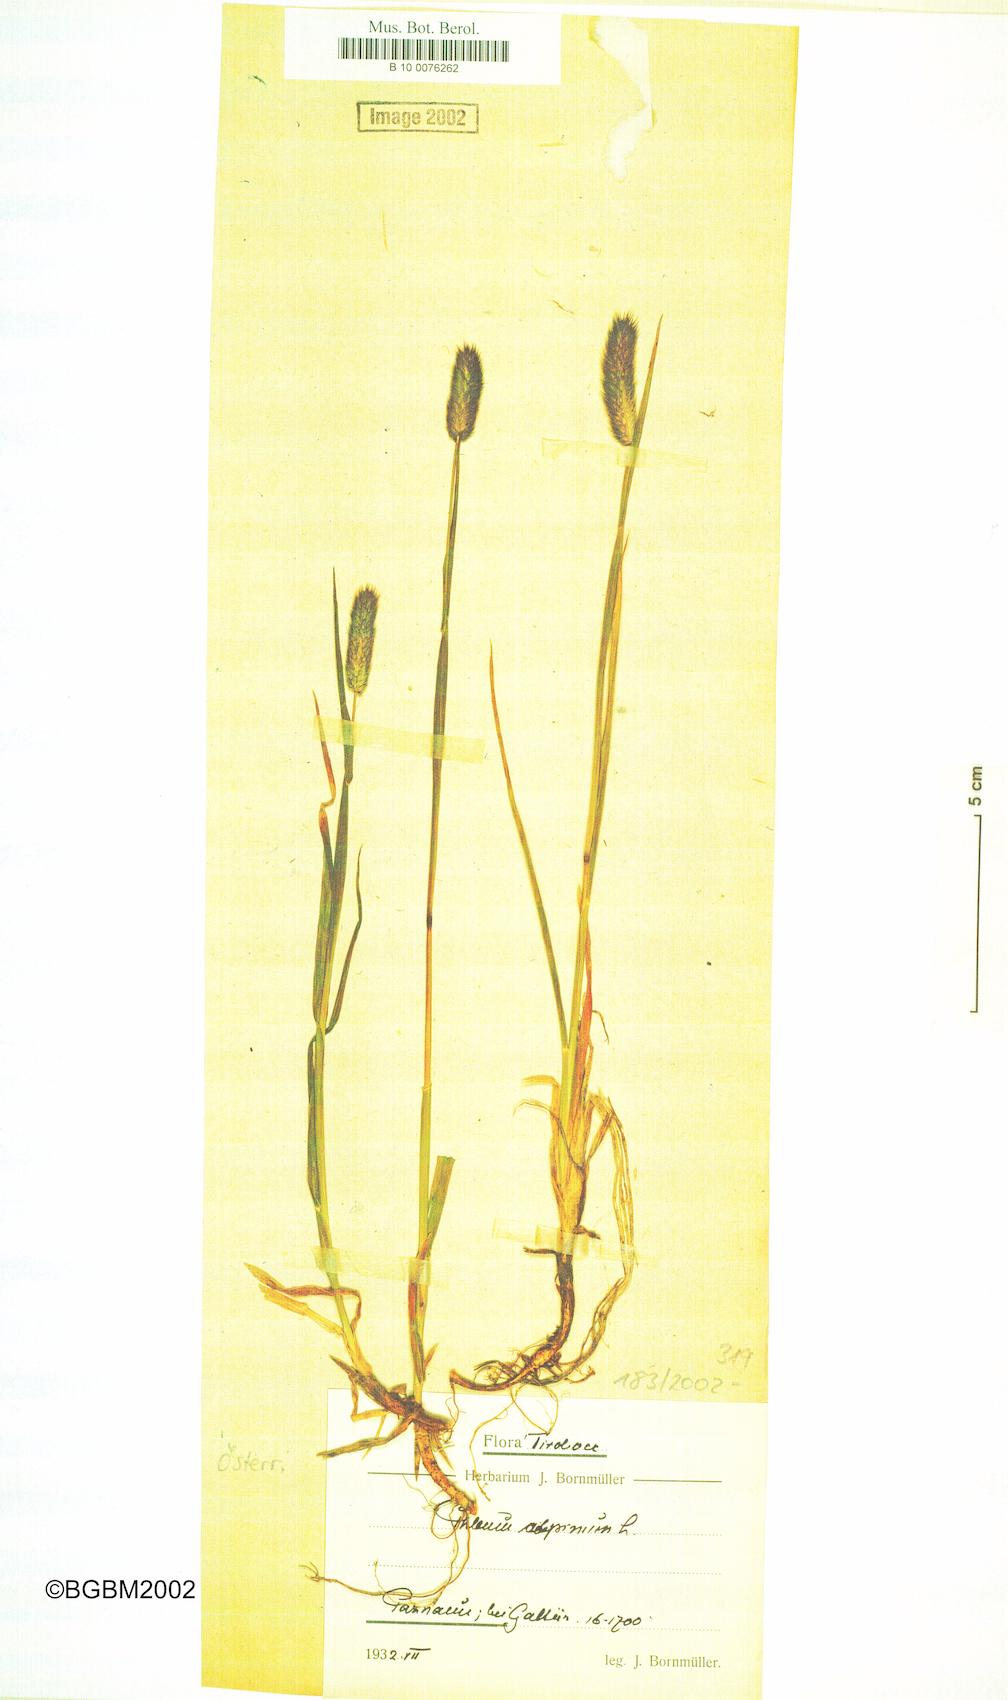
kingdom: Plantae
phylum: Tracheophyta
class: Liliopsida
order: Poales
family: Poaceae
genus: Phleum
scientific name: Phleum alpinum
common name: Alpine cat's-tail
